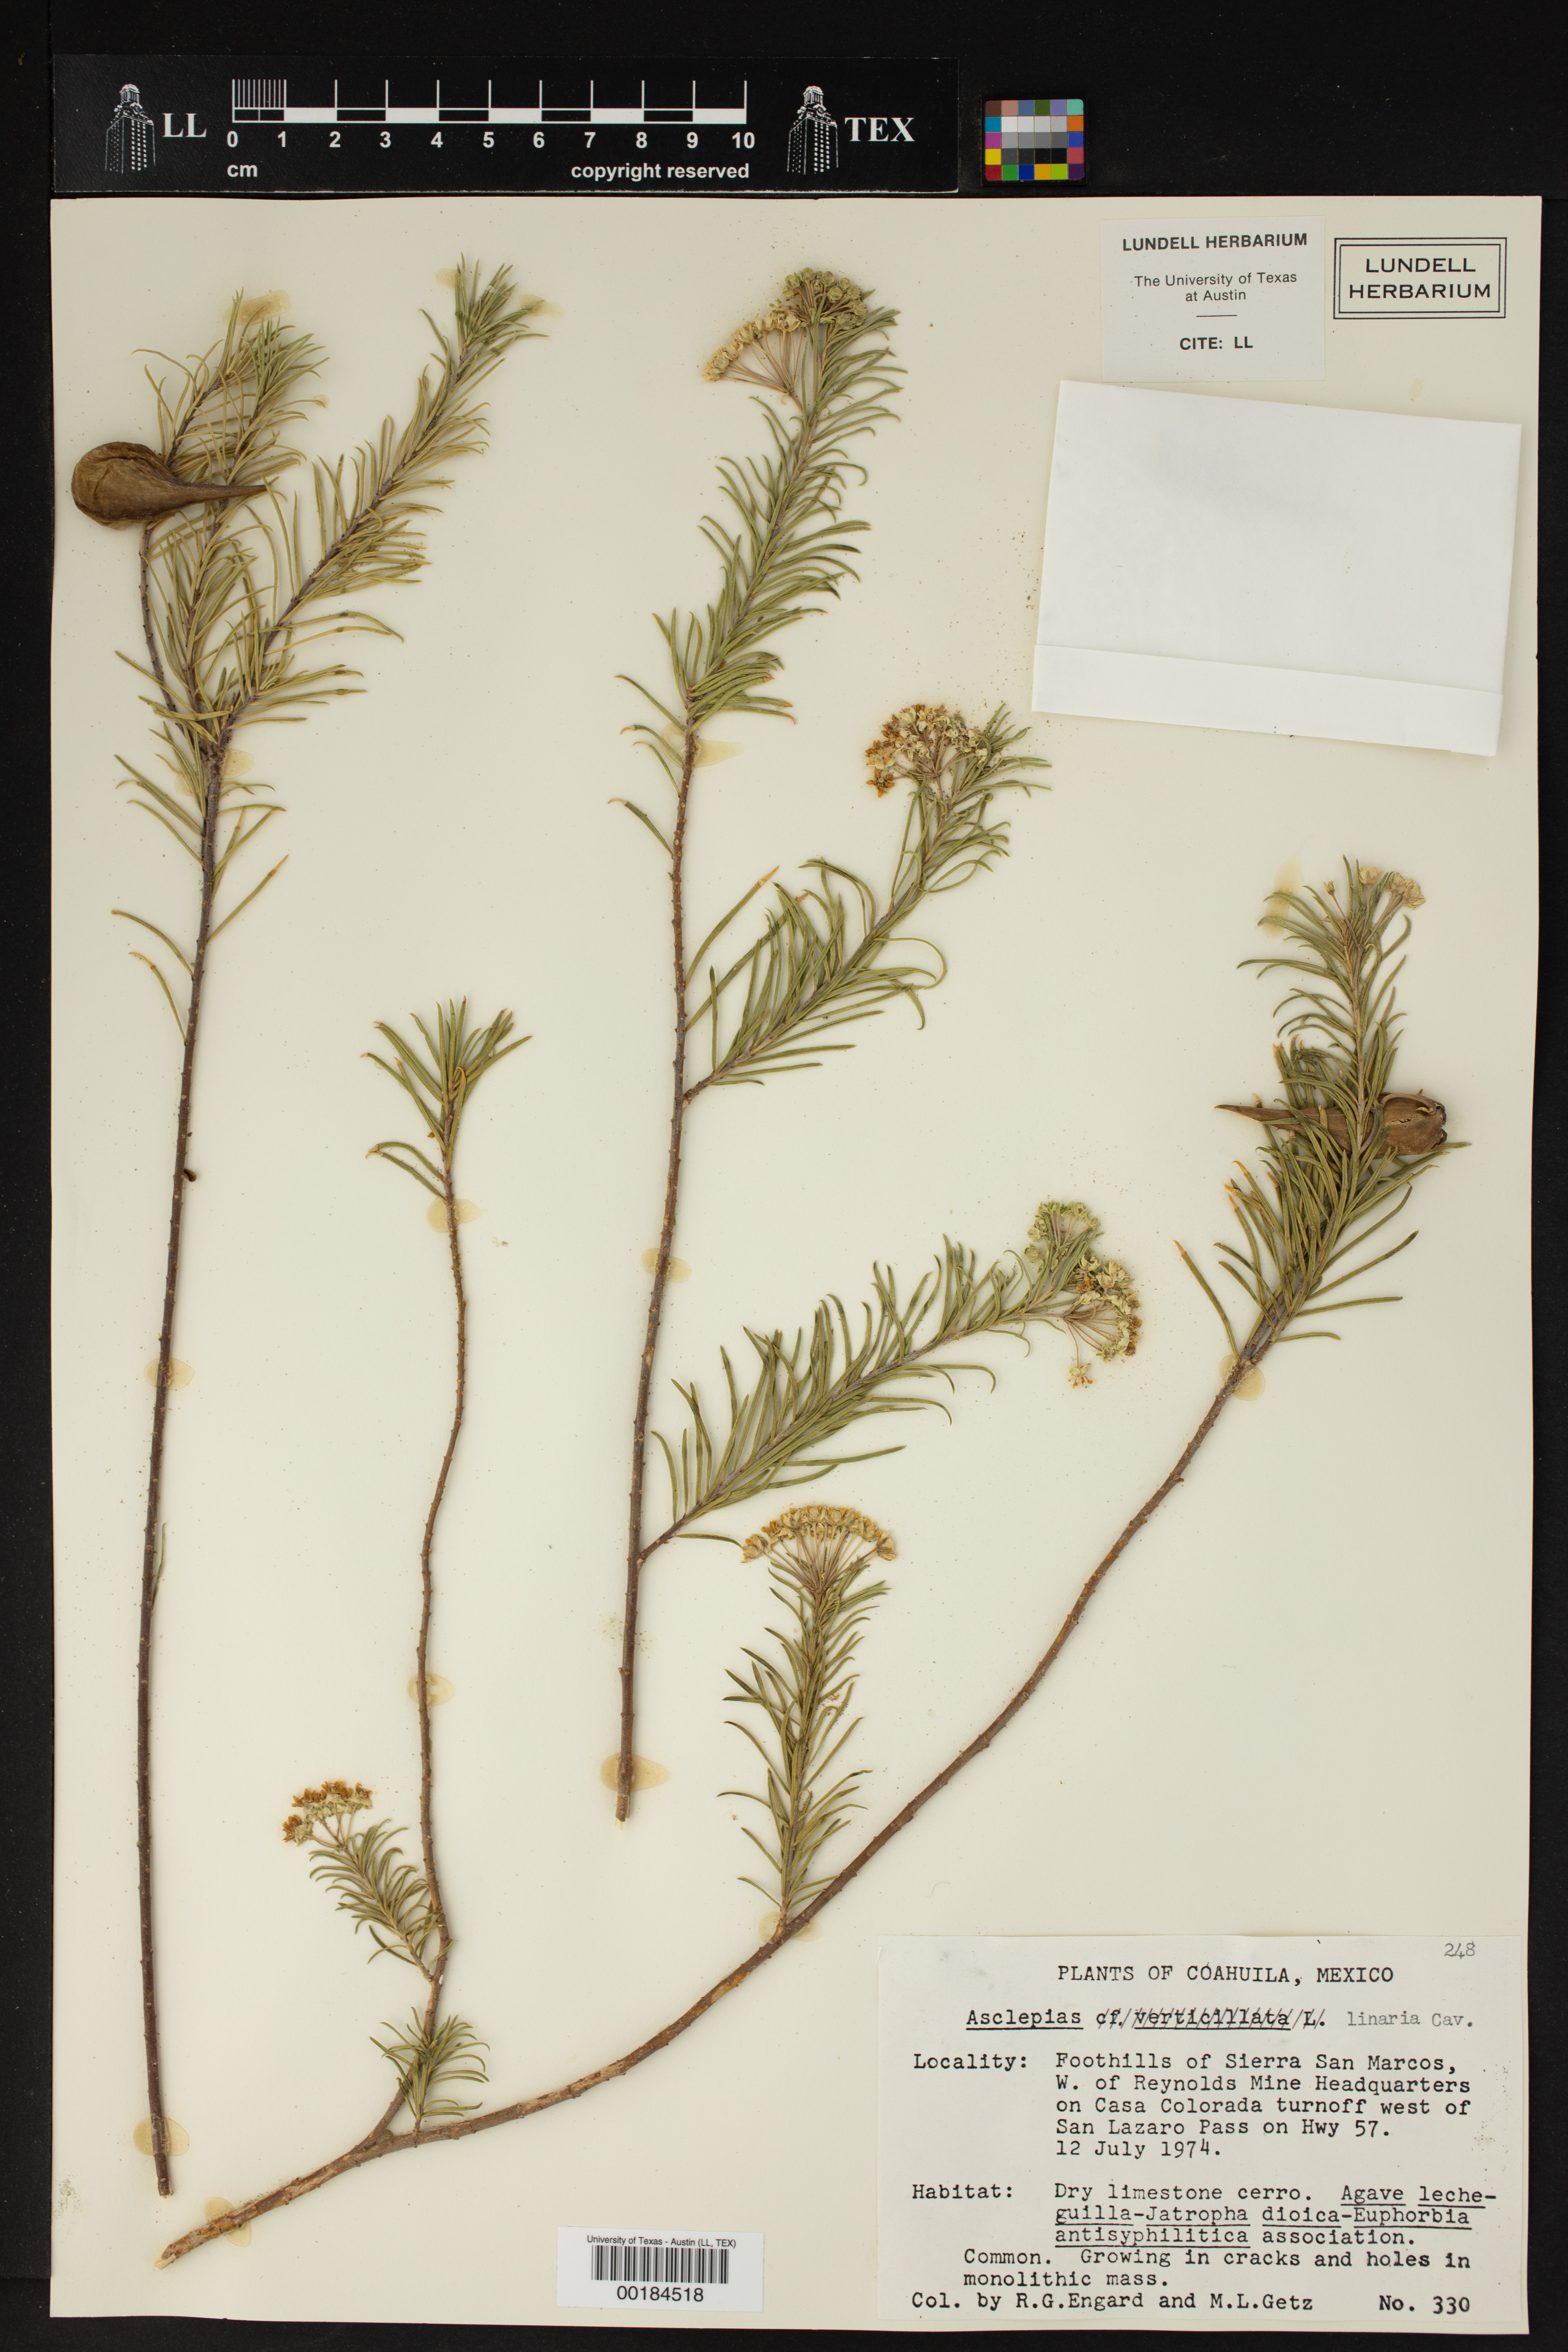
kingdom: Plantae
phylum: Tracheophyta
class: Magnoliopsida
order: Gentianales
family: Apocynaceae
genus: Asclepias
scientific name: Asclepias linaria
